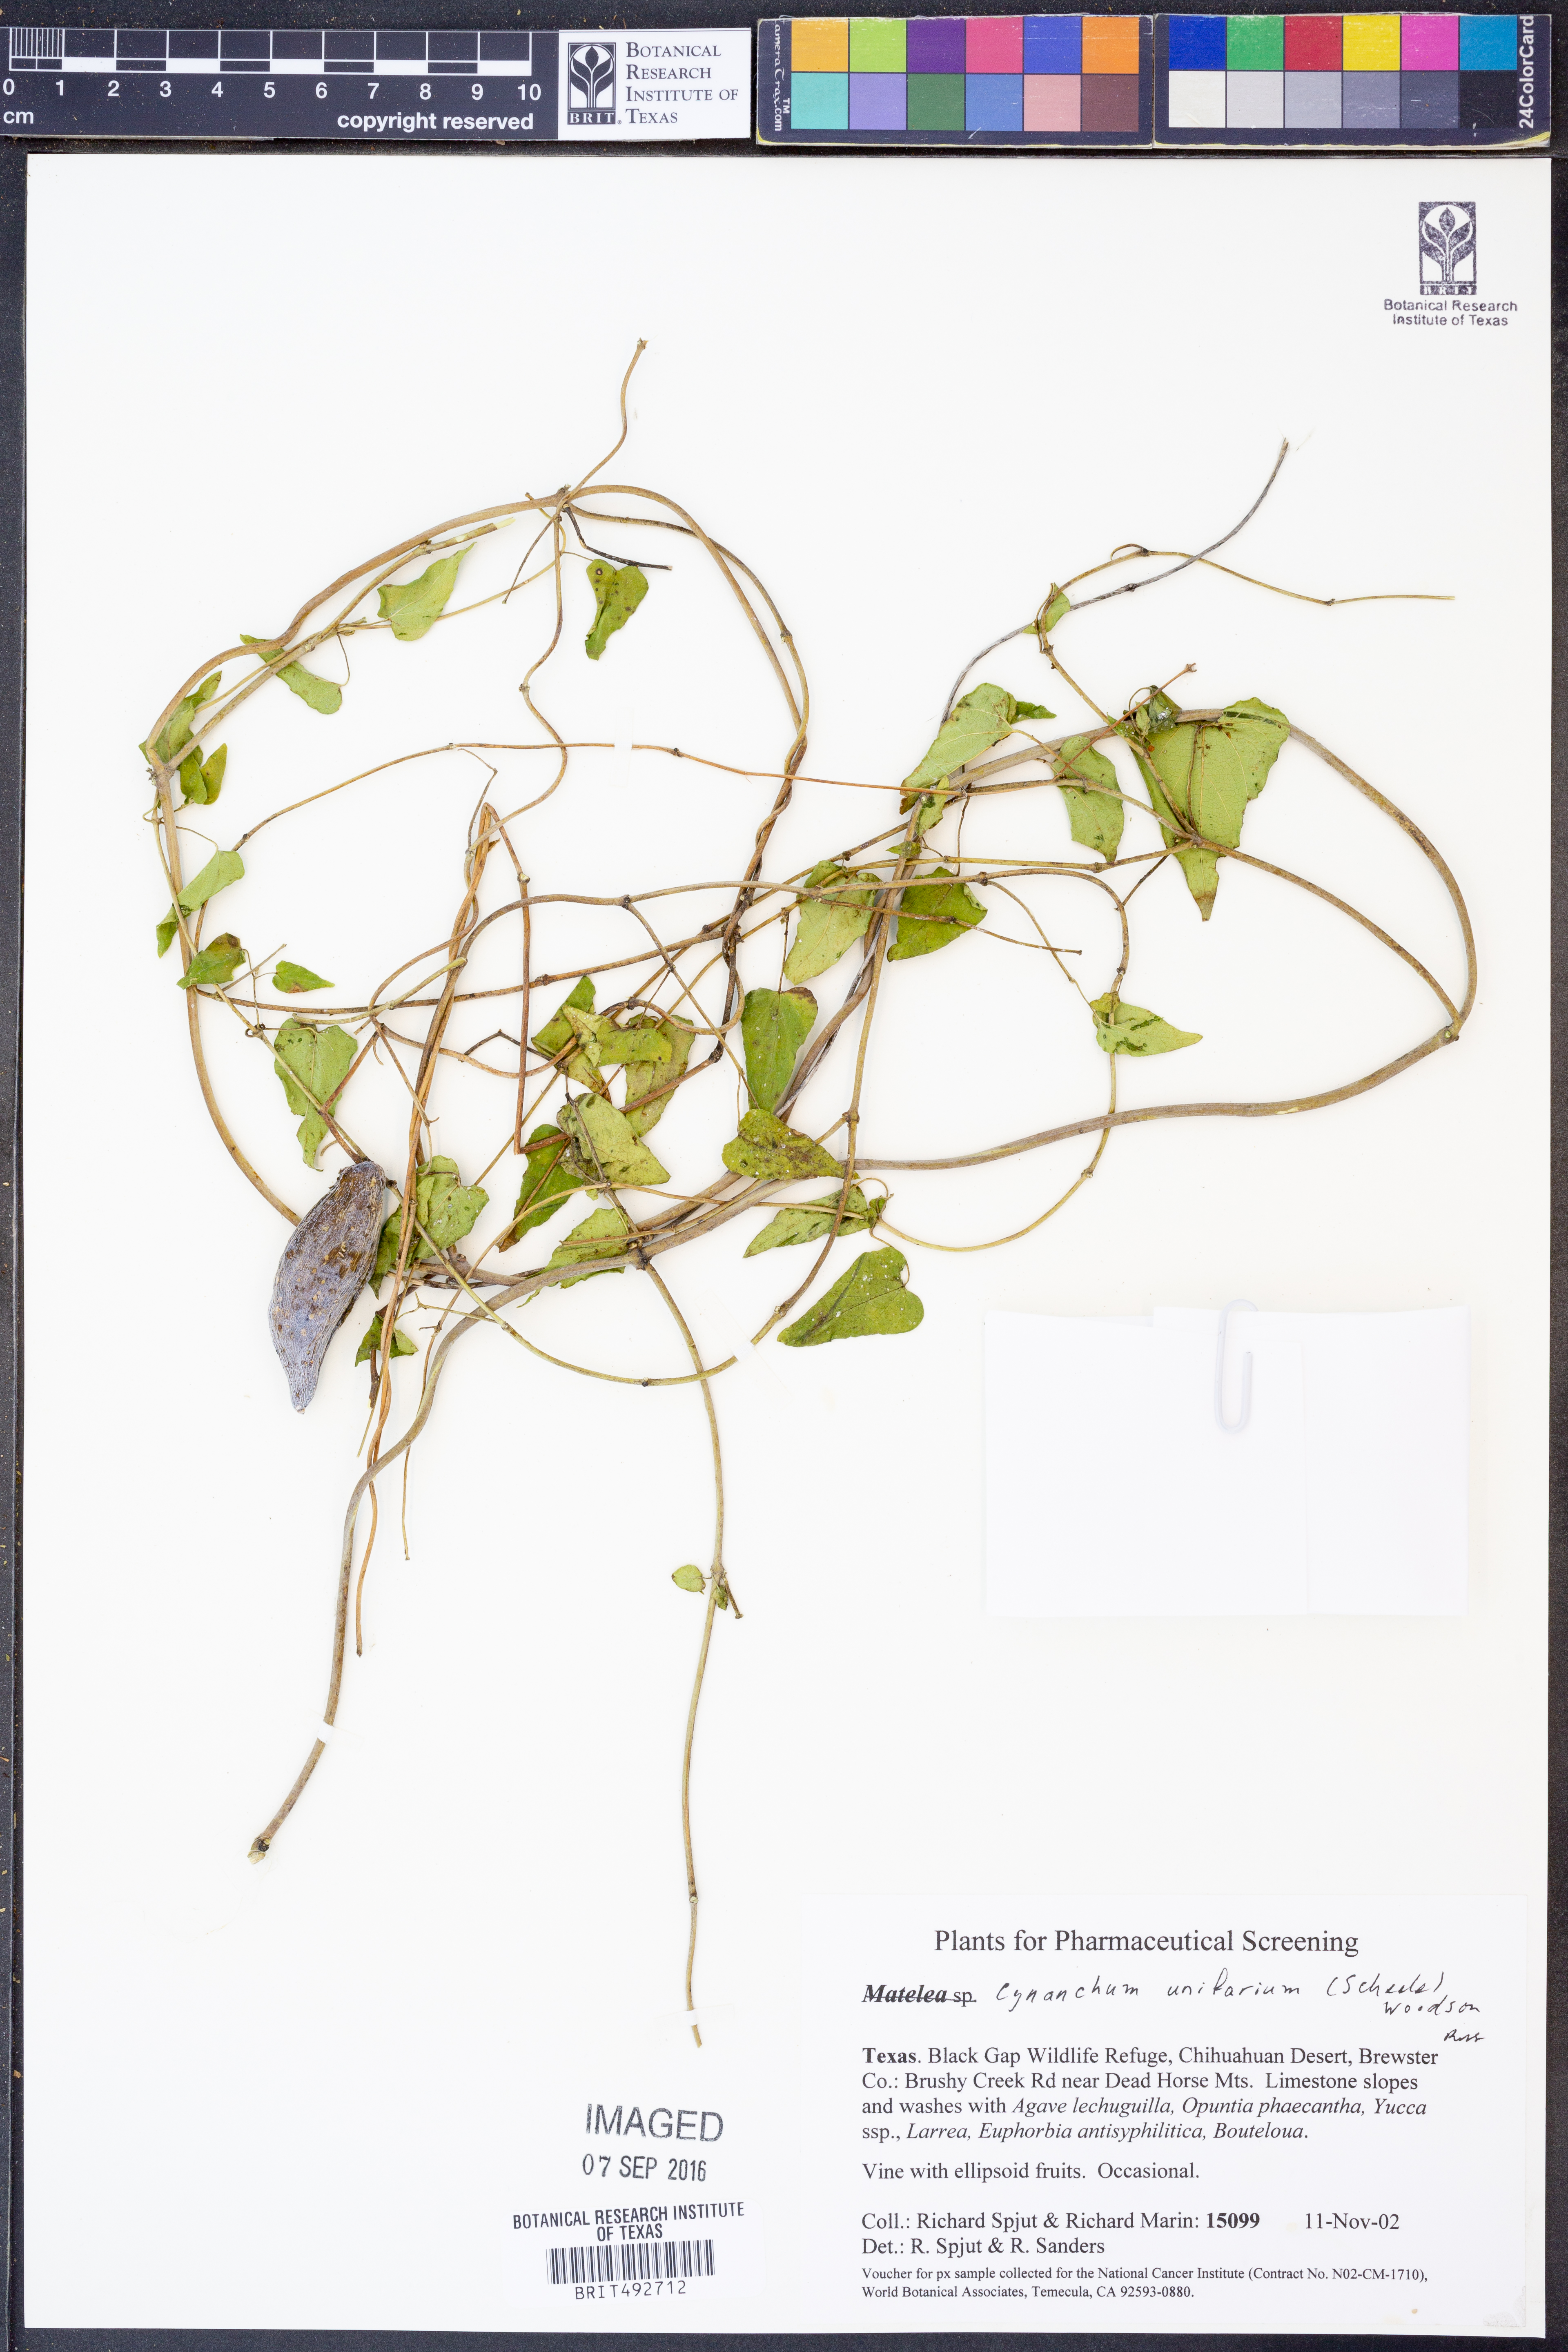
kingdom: Plantae
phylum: Tracheophyta
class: Magnoliopsida
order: Gentianales
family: Apocynaceae
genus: Cynanchum
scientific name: Cynanchum racemosum
